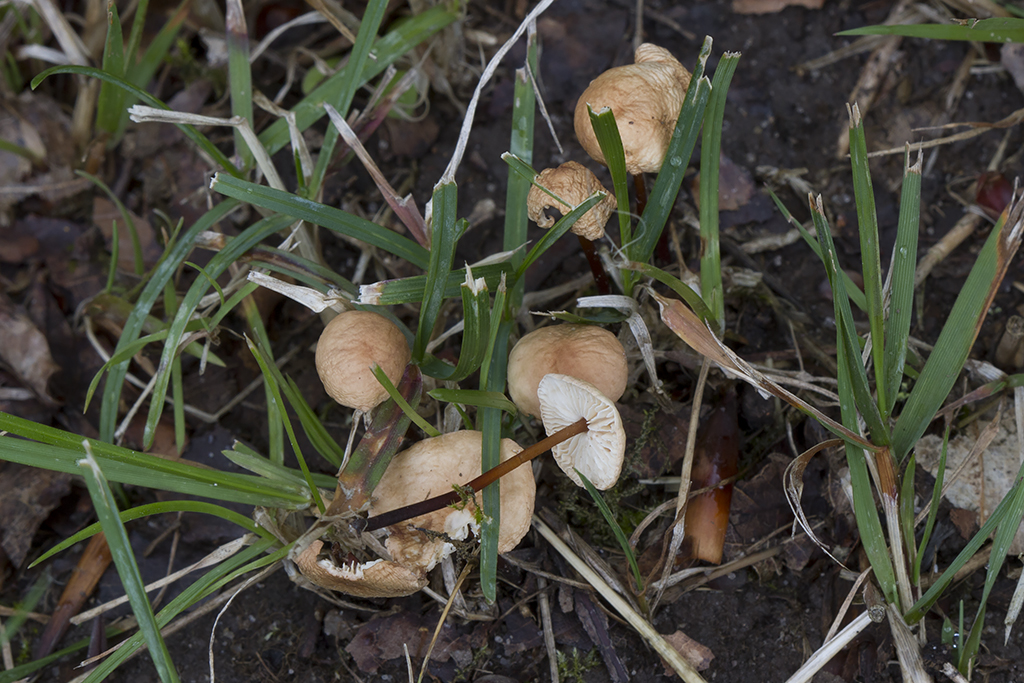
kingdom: Fungi
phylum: Basidiomycota
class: Agaricomycetes
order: Agaricales
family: Omphalotaceae
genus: Mycetinis
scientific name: Mycetinis scorodonius
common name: lille løghat
